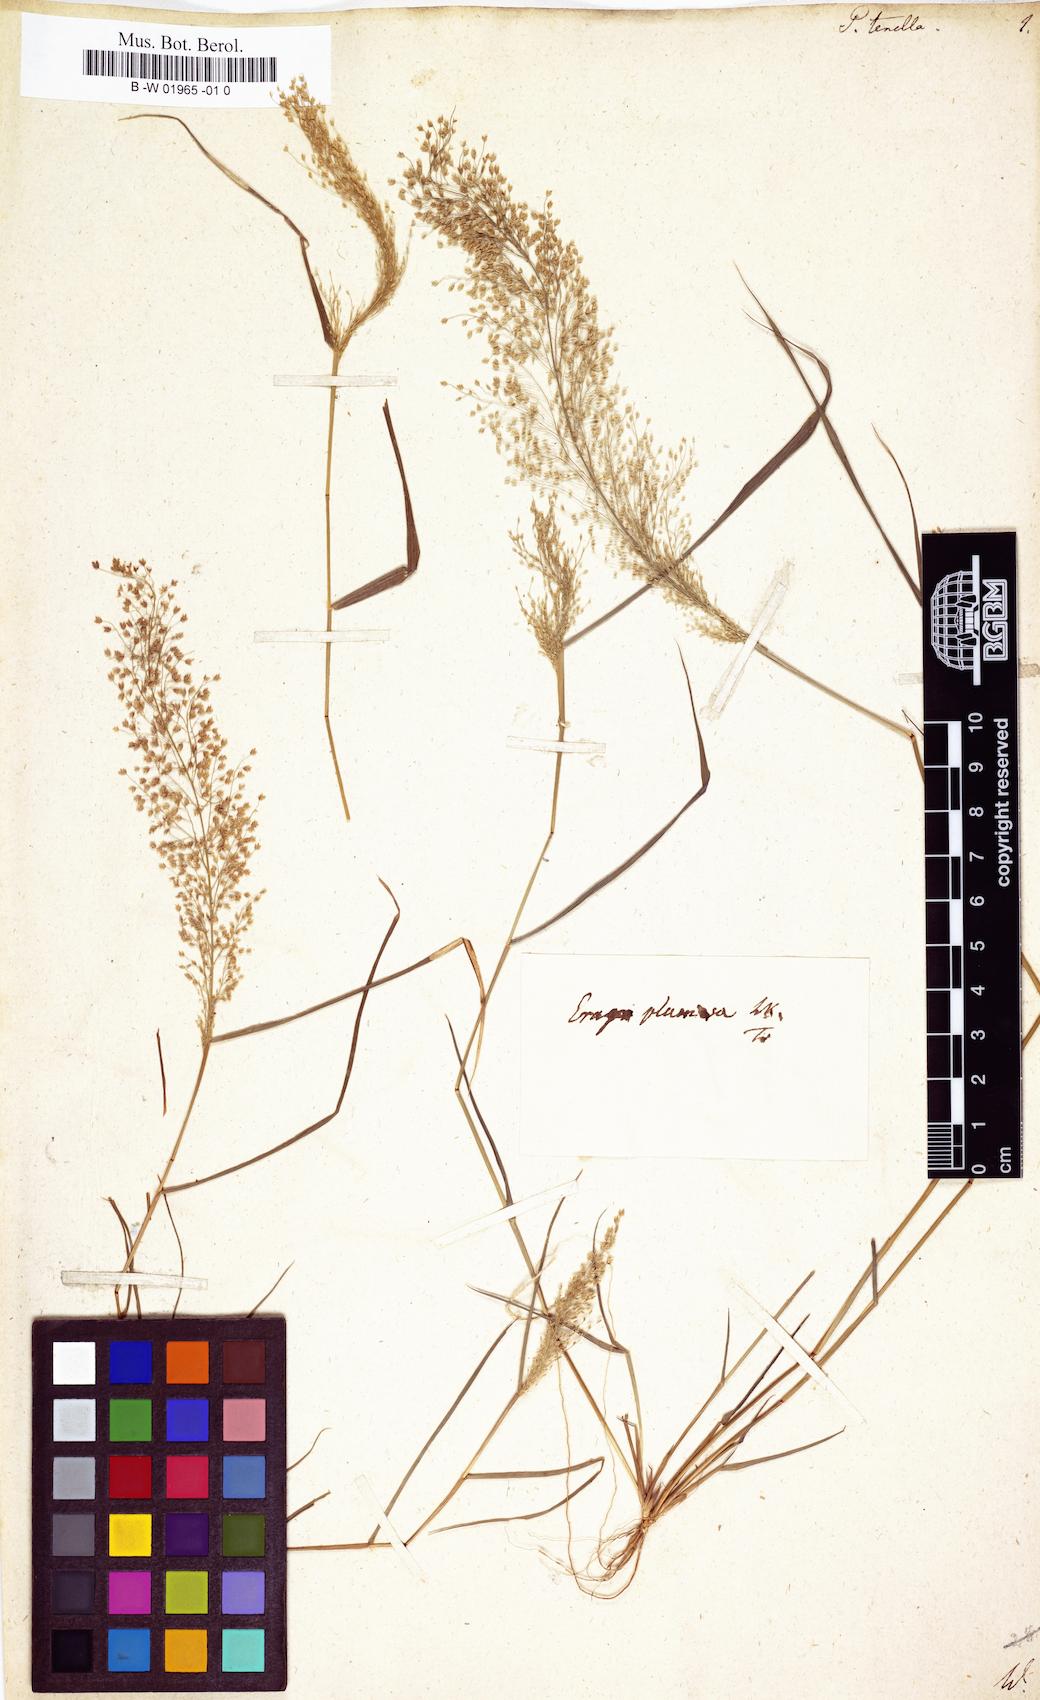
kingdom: Plantae
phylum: Tracheophyta
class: Liliopsida
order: Poales
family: Poaceae
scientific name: Poaceae
